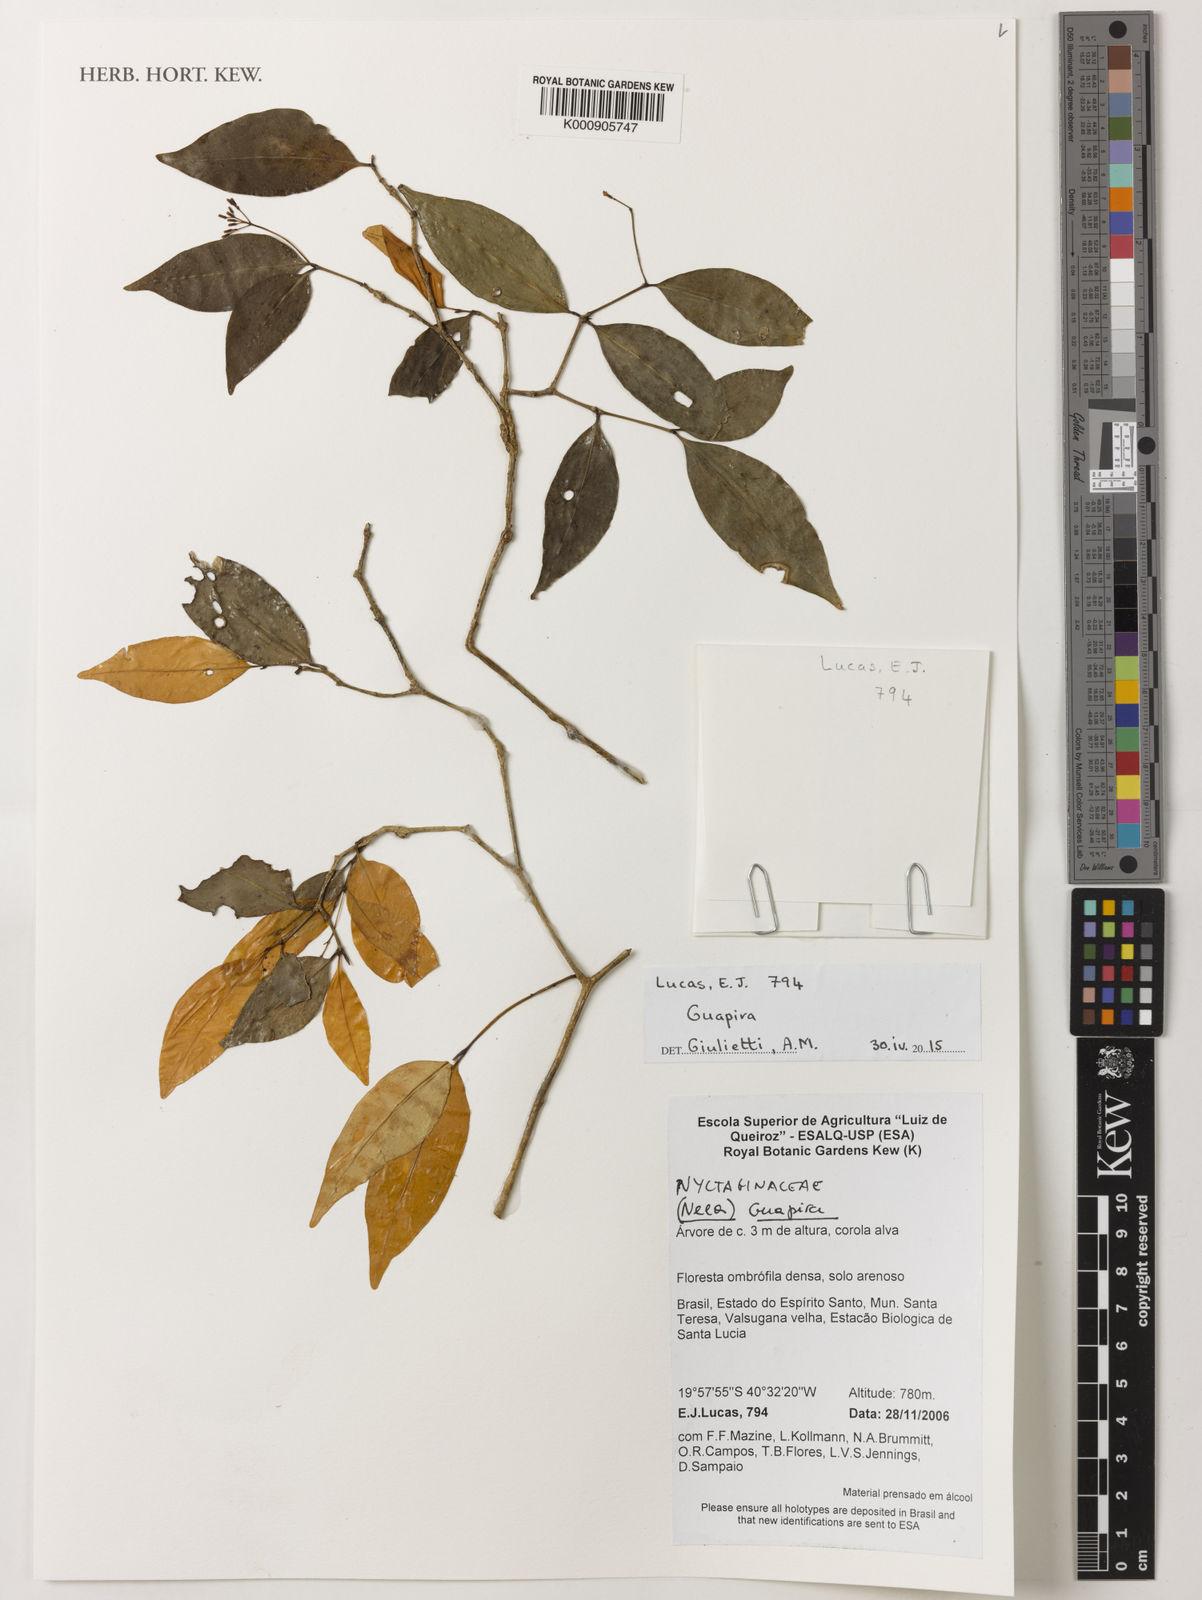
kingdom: Plantae
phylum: Tracheophyta
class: Magnoliopsida
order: Caryophyllales
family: Nyctaginaceae
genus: Guapira
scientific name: Guapira
